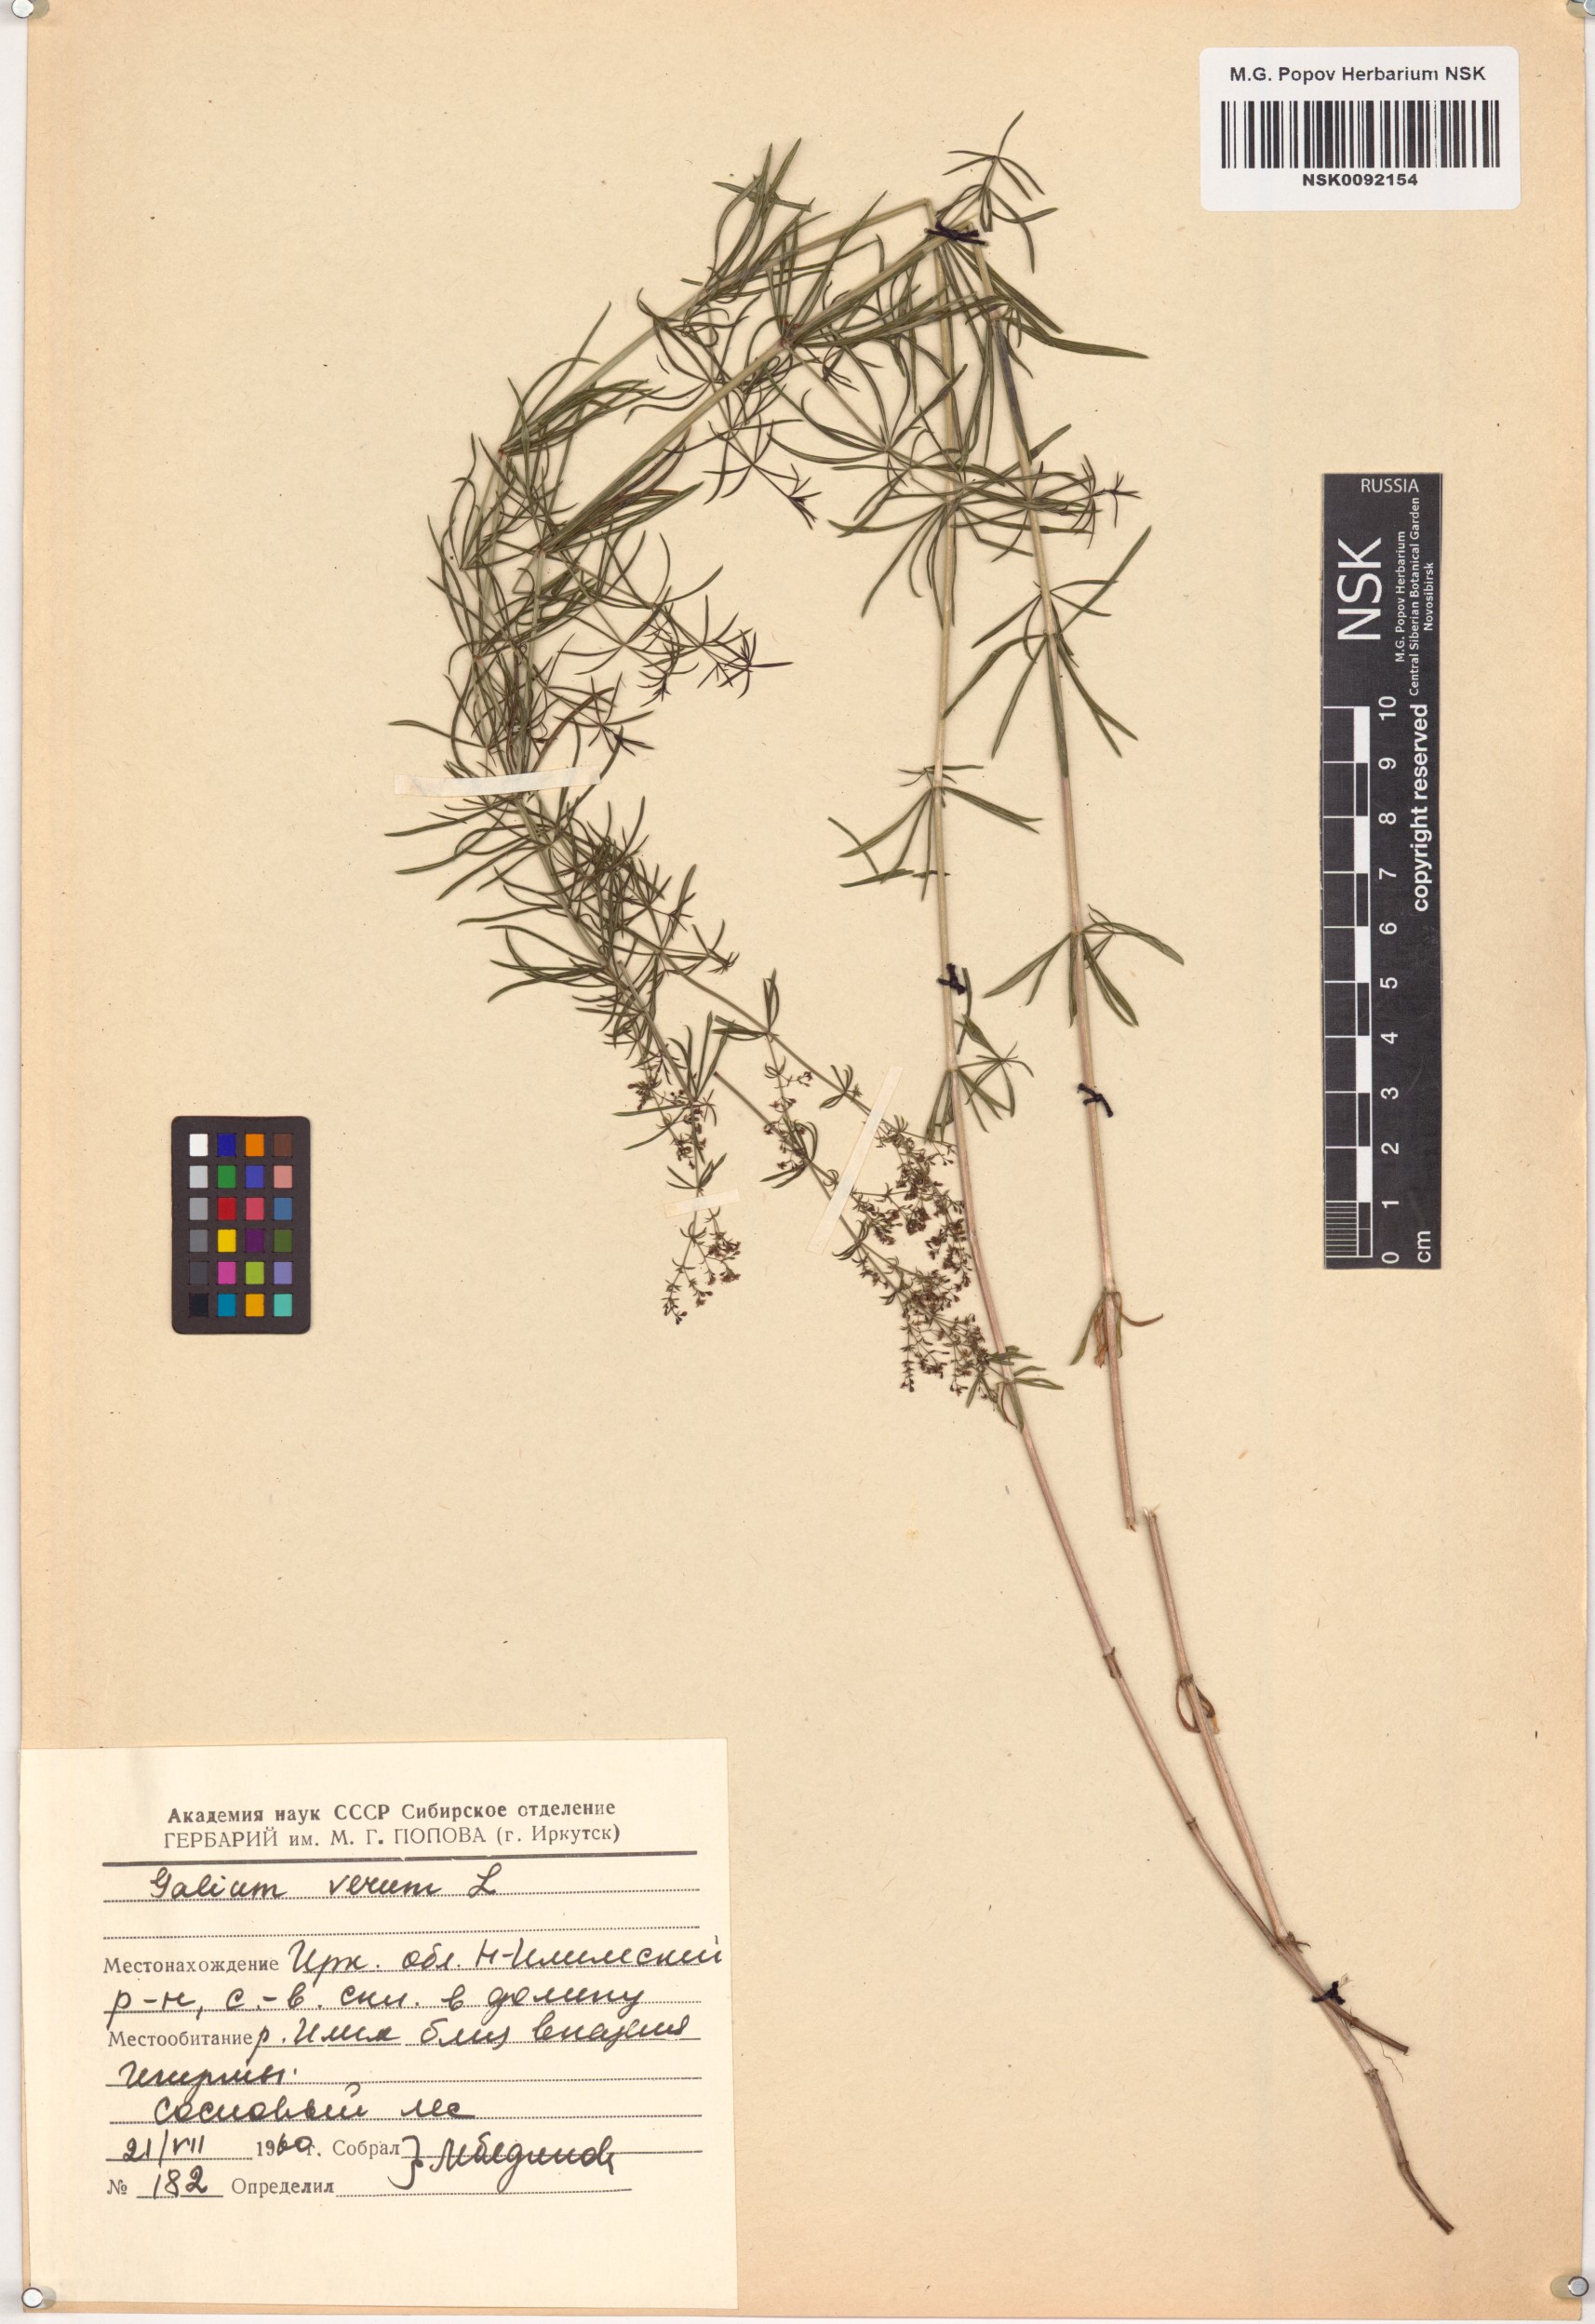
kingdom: Plantae
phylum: Tracheophyta
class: Magnoliopsida
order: Gentianales
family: Rubiaceae
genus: Galium
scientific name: Galium verum
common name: Lady's bedstraw
